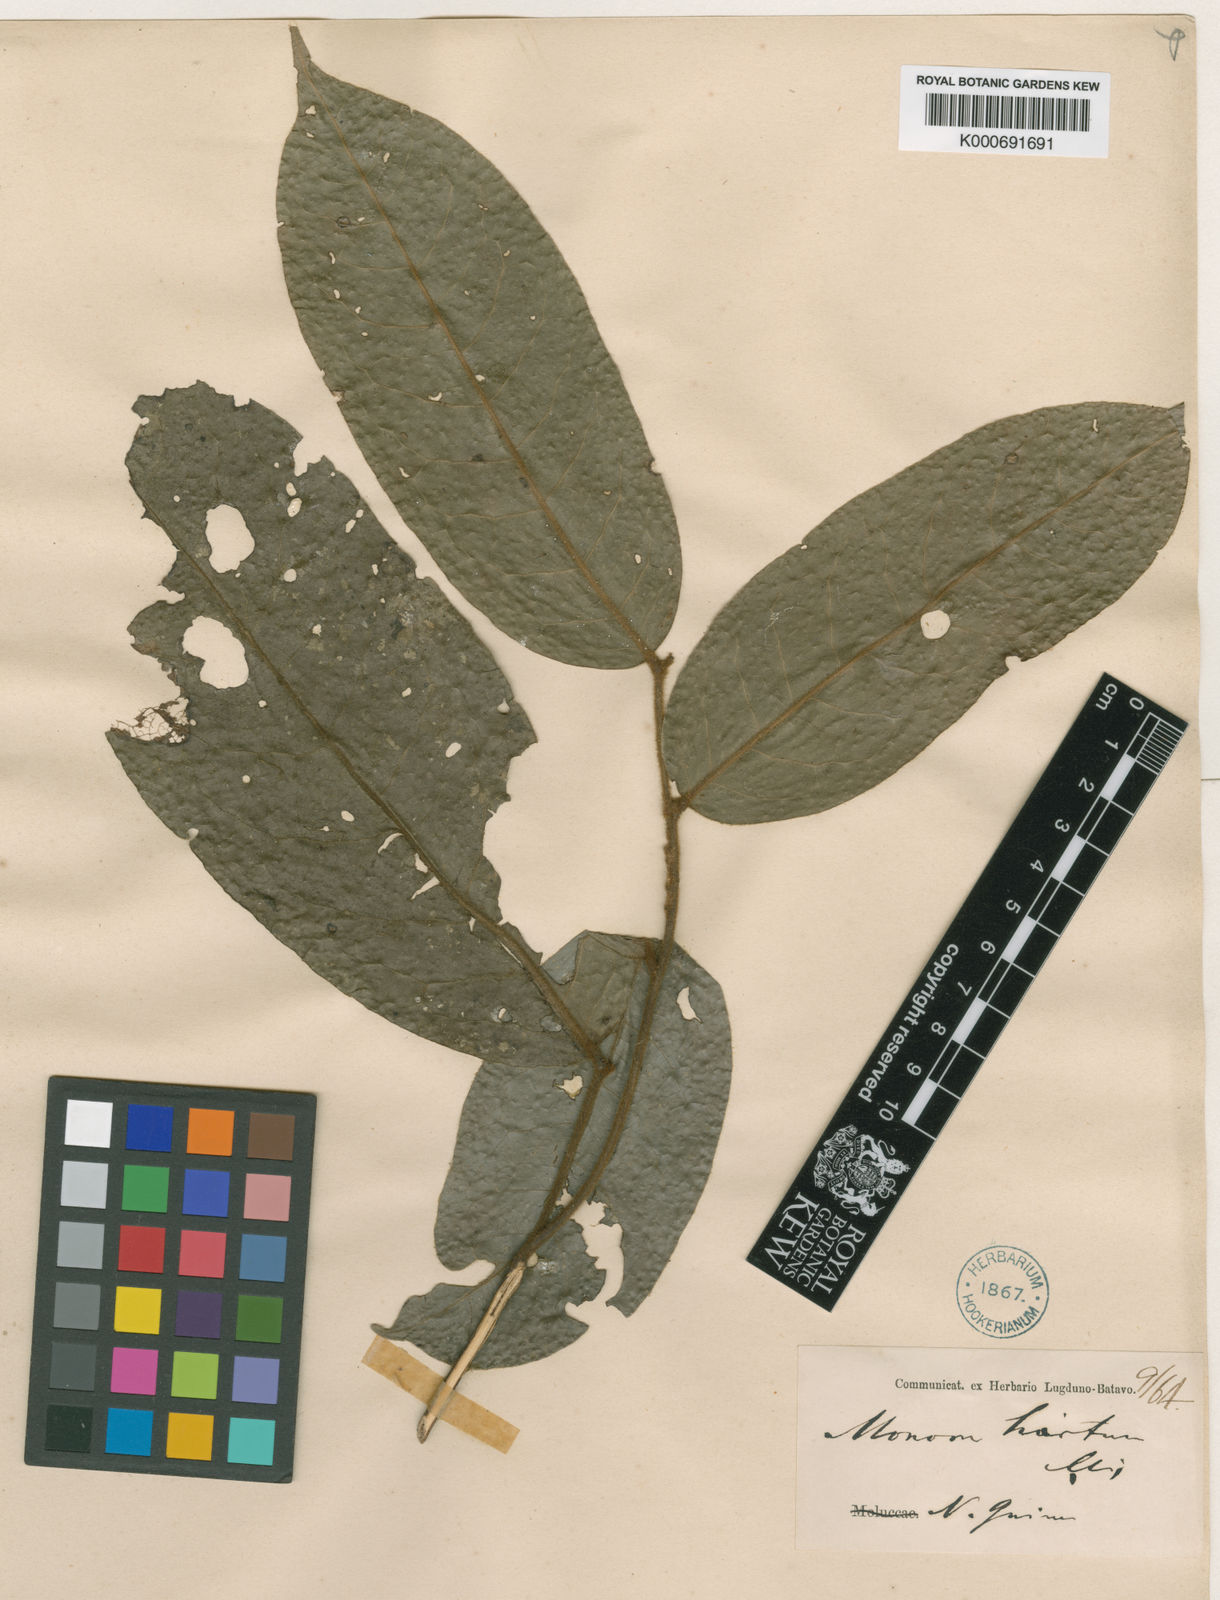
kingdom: Plantae
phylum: Tracheophyta
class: Magnoliopsida
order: Magnoliales
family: Annonaceae
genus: Hubera
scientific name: Hubera hirta
